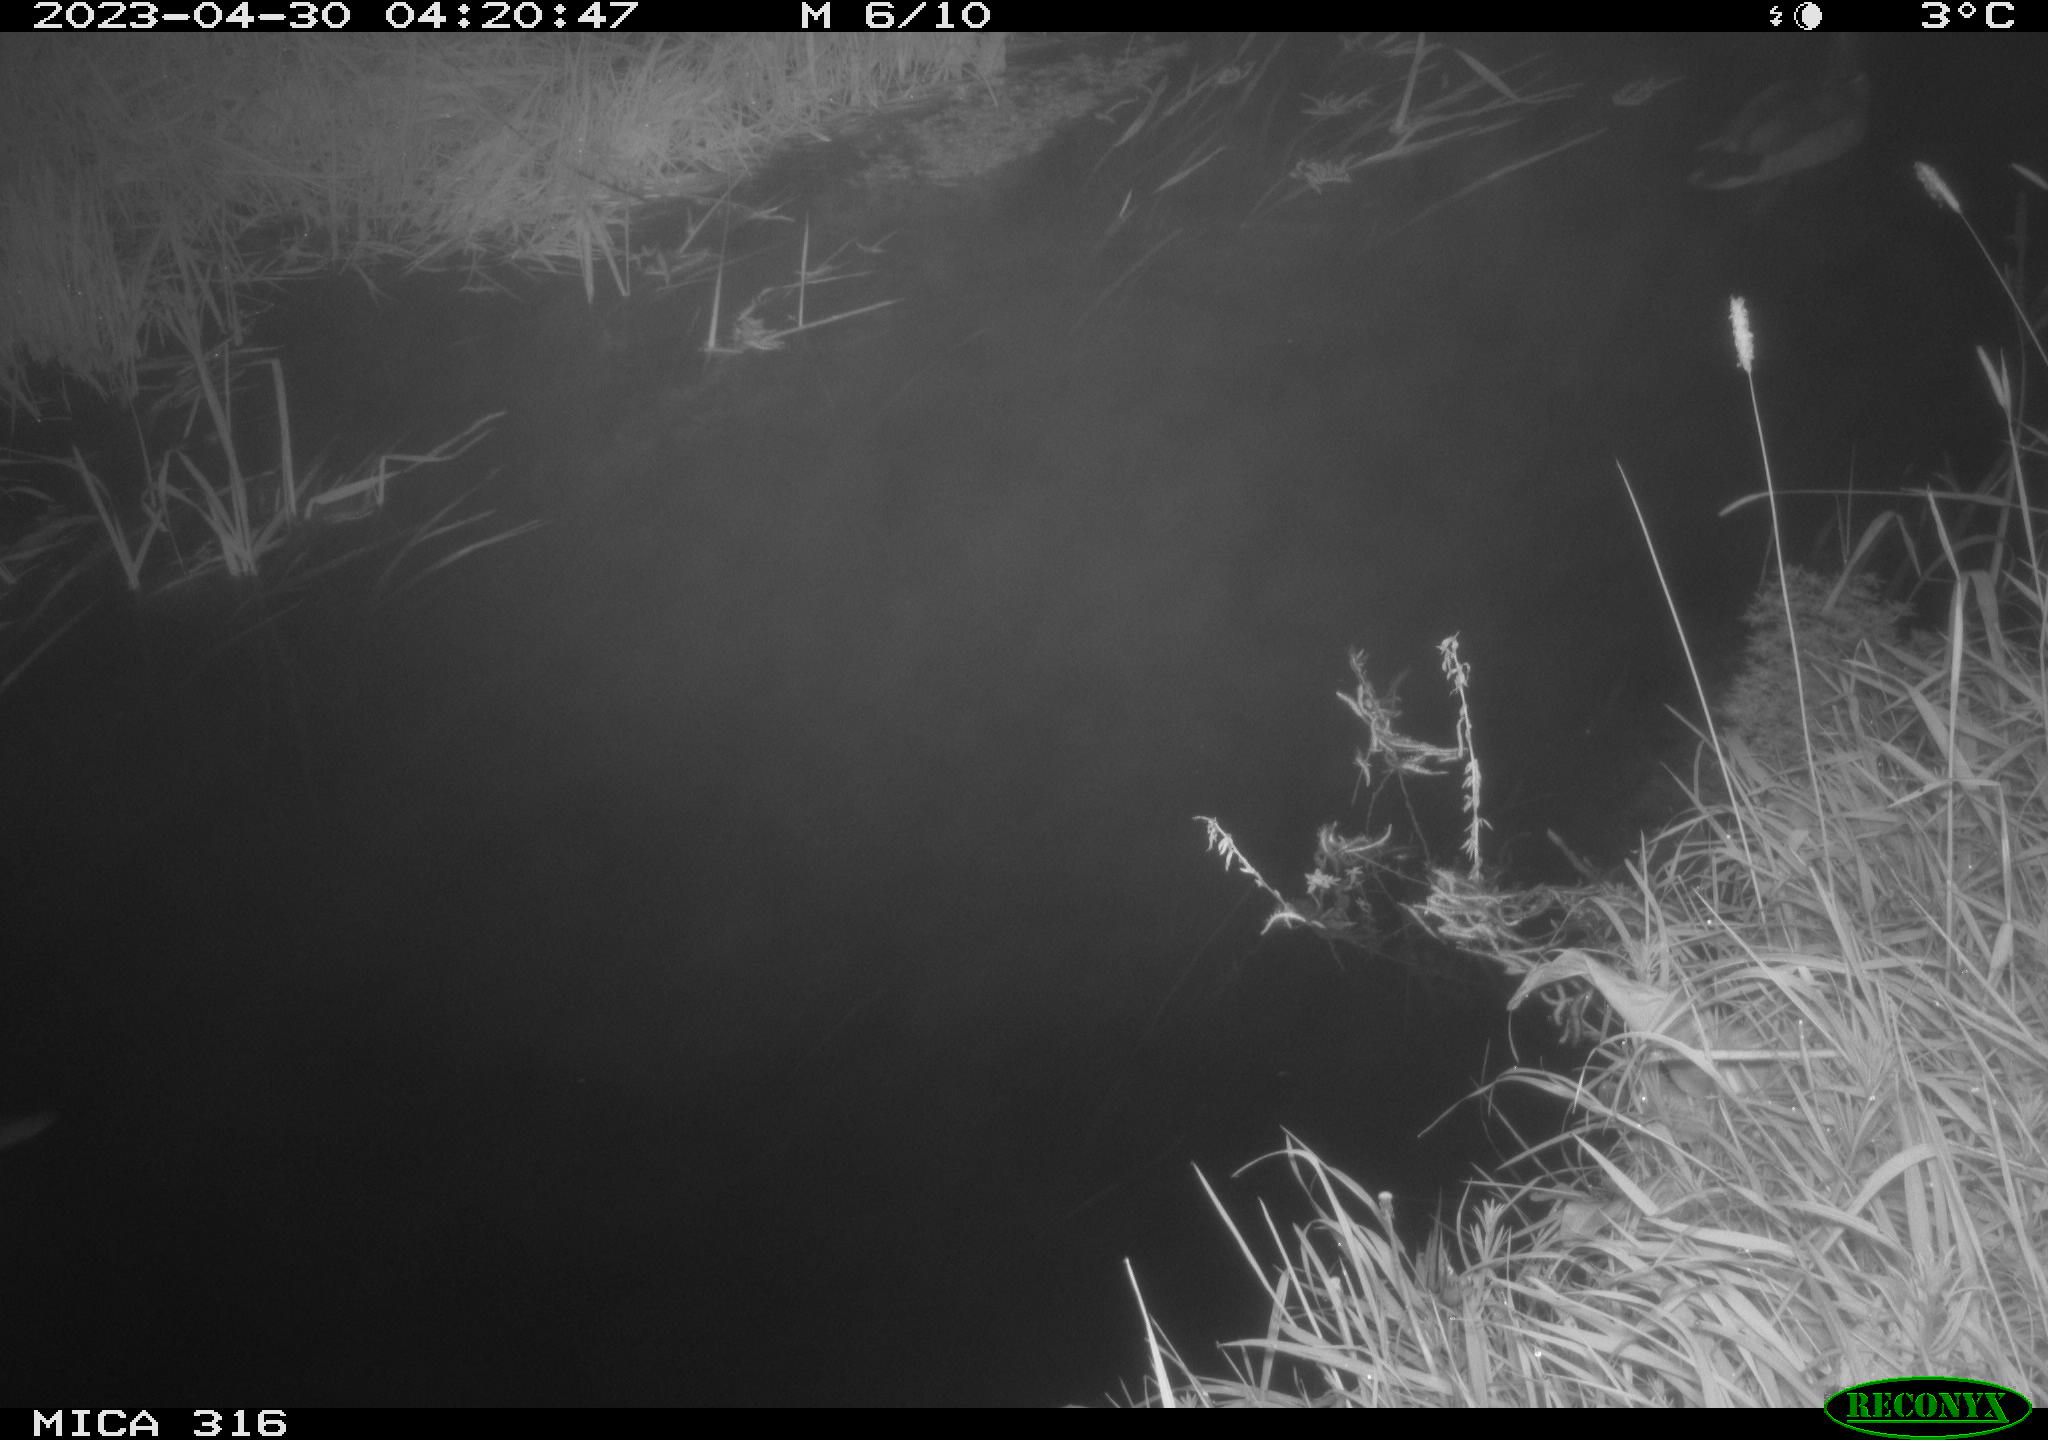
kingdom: Animalia
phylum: Chordata
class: Aves
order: Anseriformes
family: Anatidae
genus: Anas
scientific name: Anas
